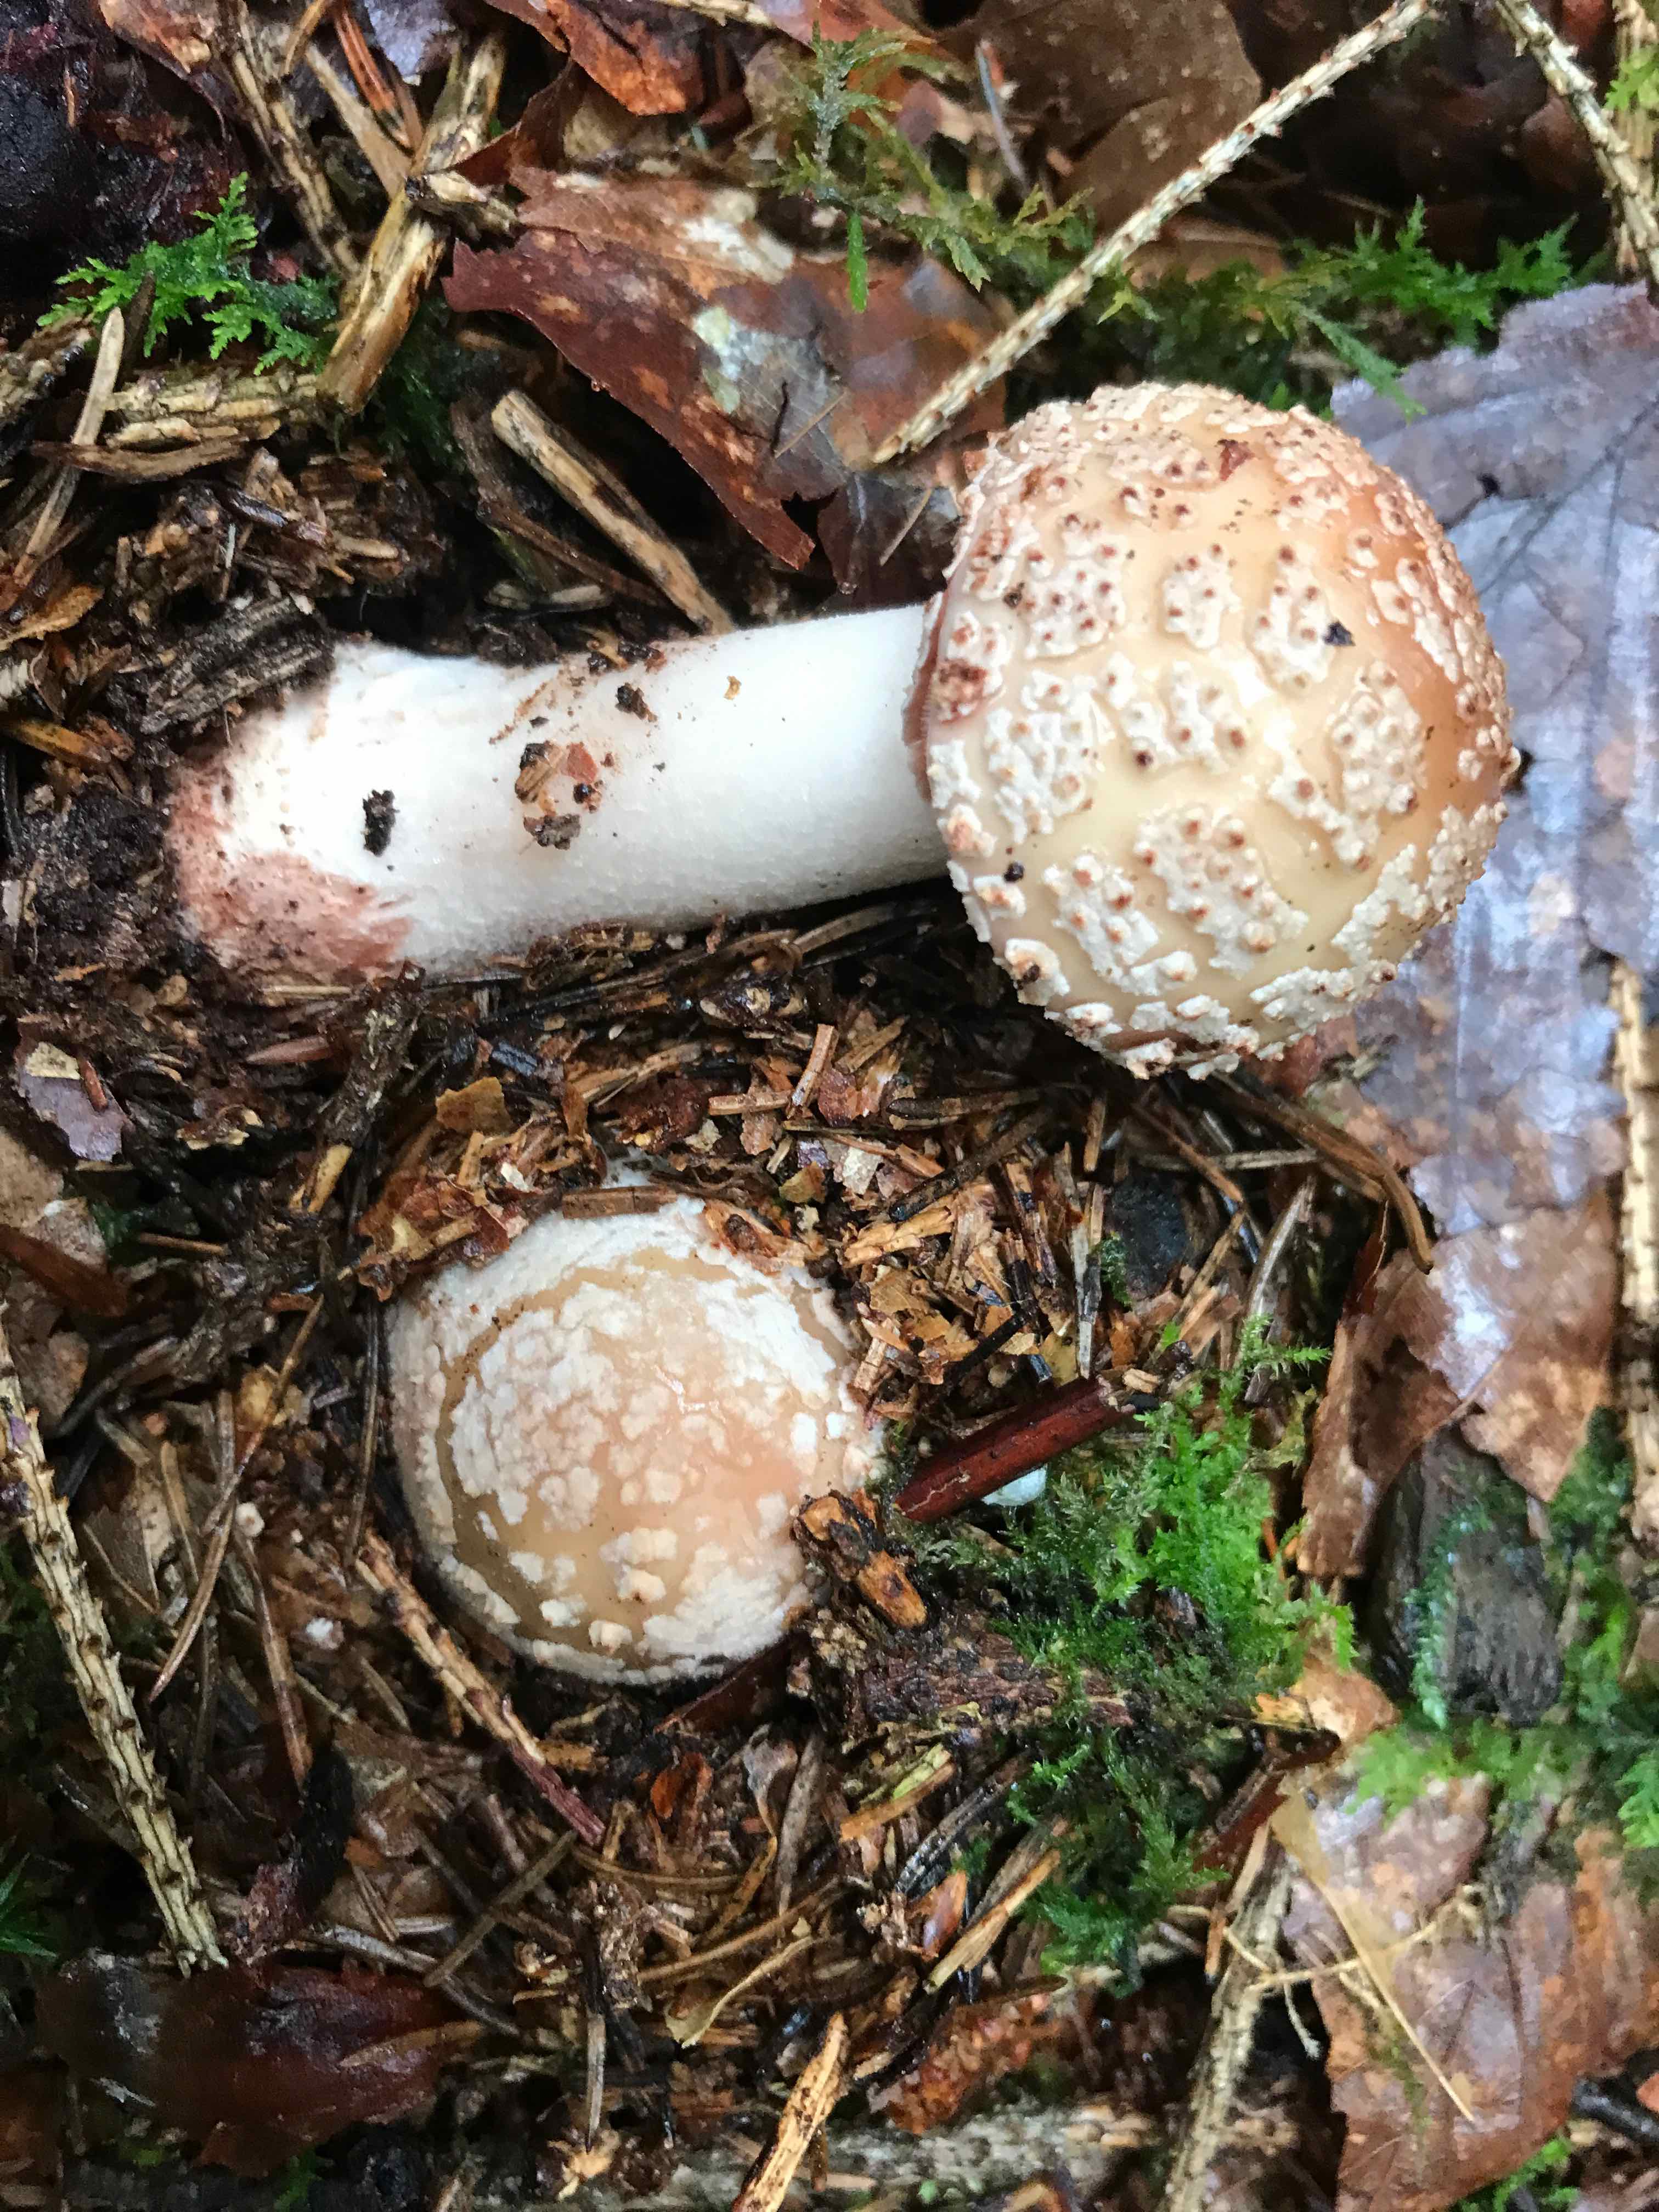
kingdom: Fungi
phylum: Basidiomycota
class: Agaricomycetes
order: Agaricales
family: Amanitaceae
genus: Amanita
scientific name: Amanita rubescens
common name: rødmende fluesvamp
